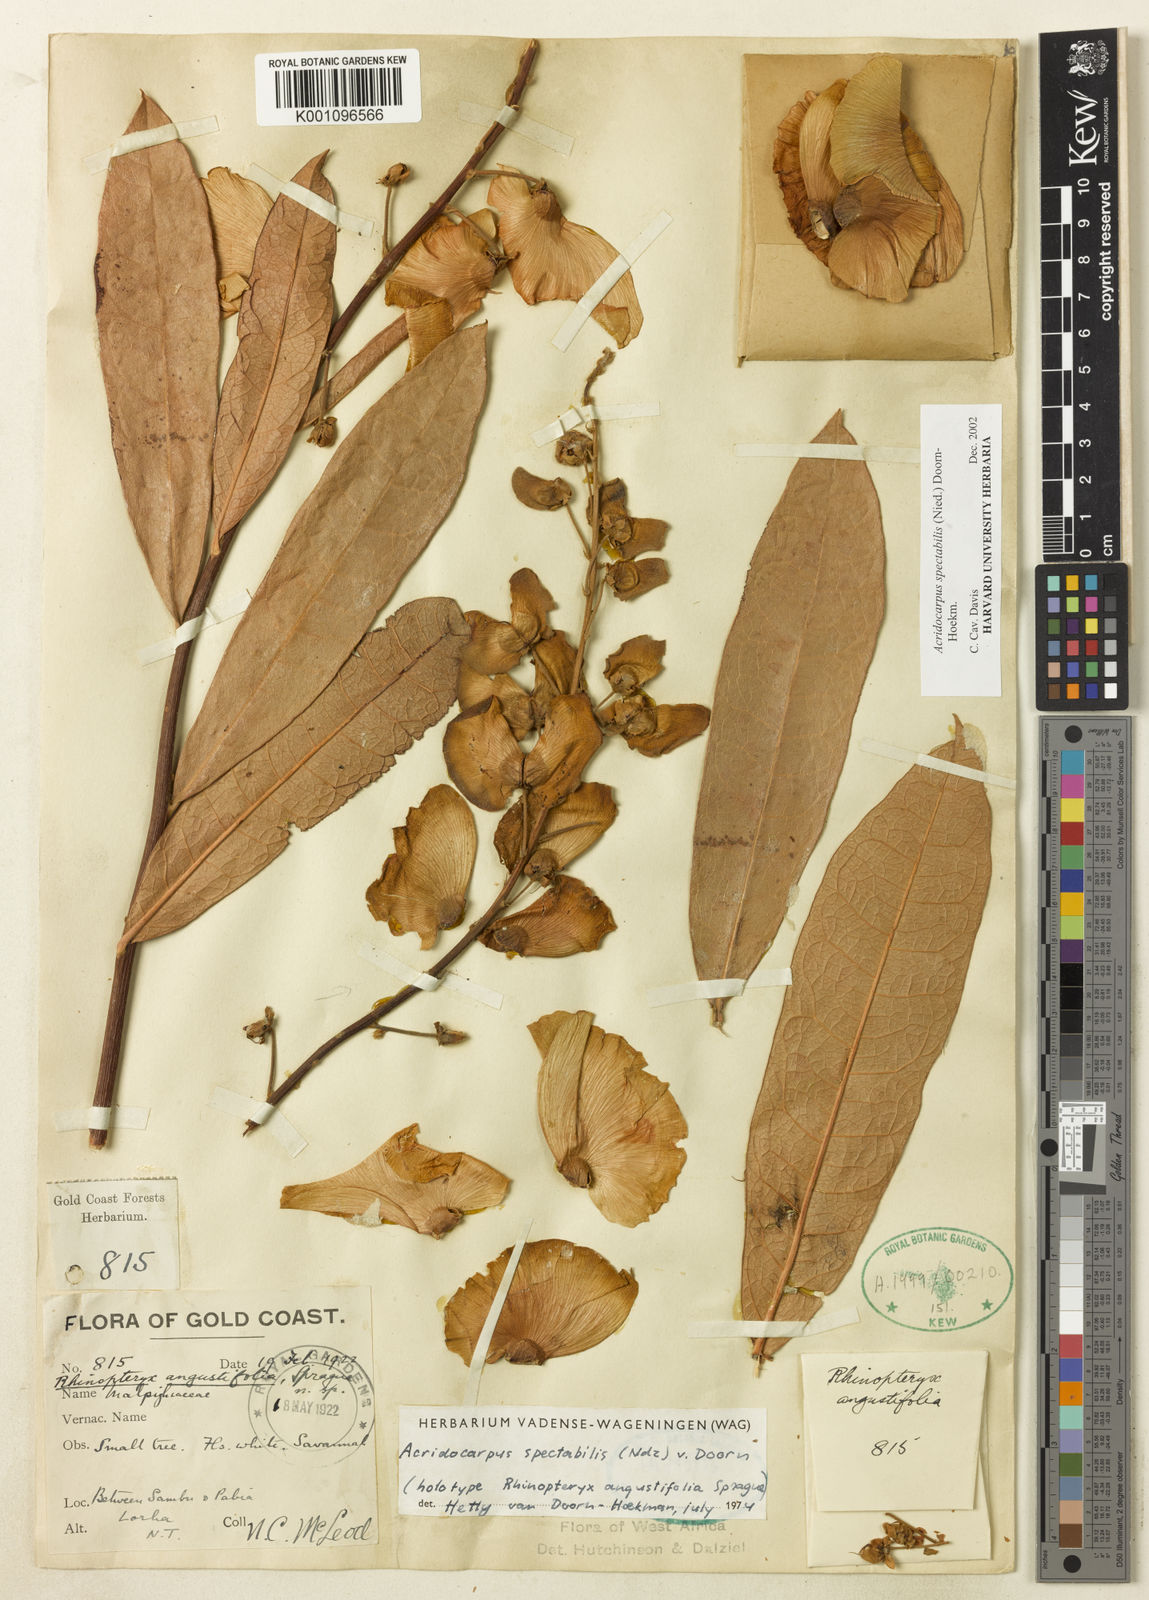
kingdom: Plantae
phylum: Tracheophyta
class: Magnoliopsida
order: Malpighiales
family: Malpighiaceae
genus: Acridocarpus
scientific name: Acridocarpus spectabilis
